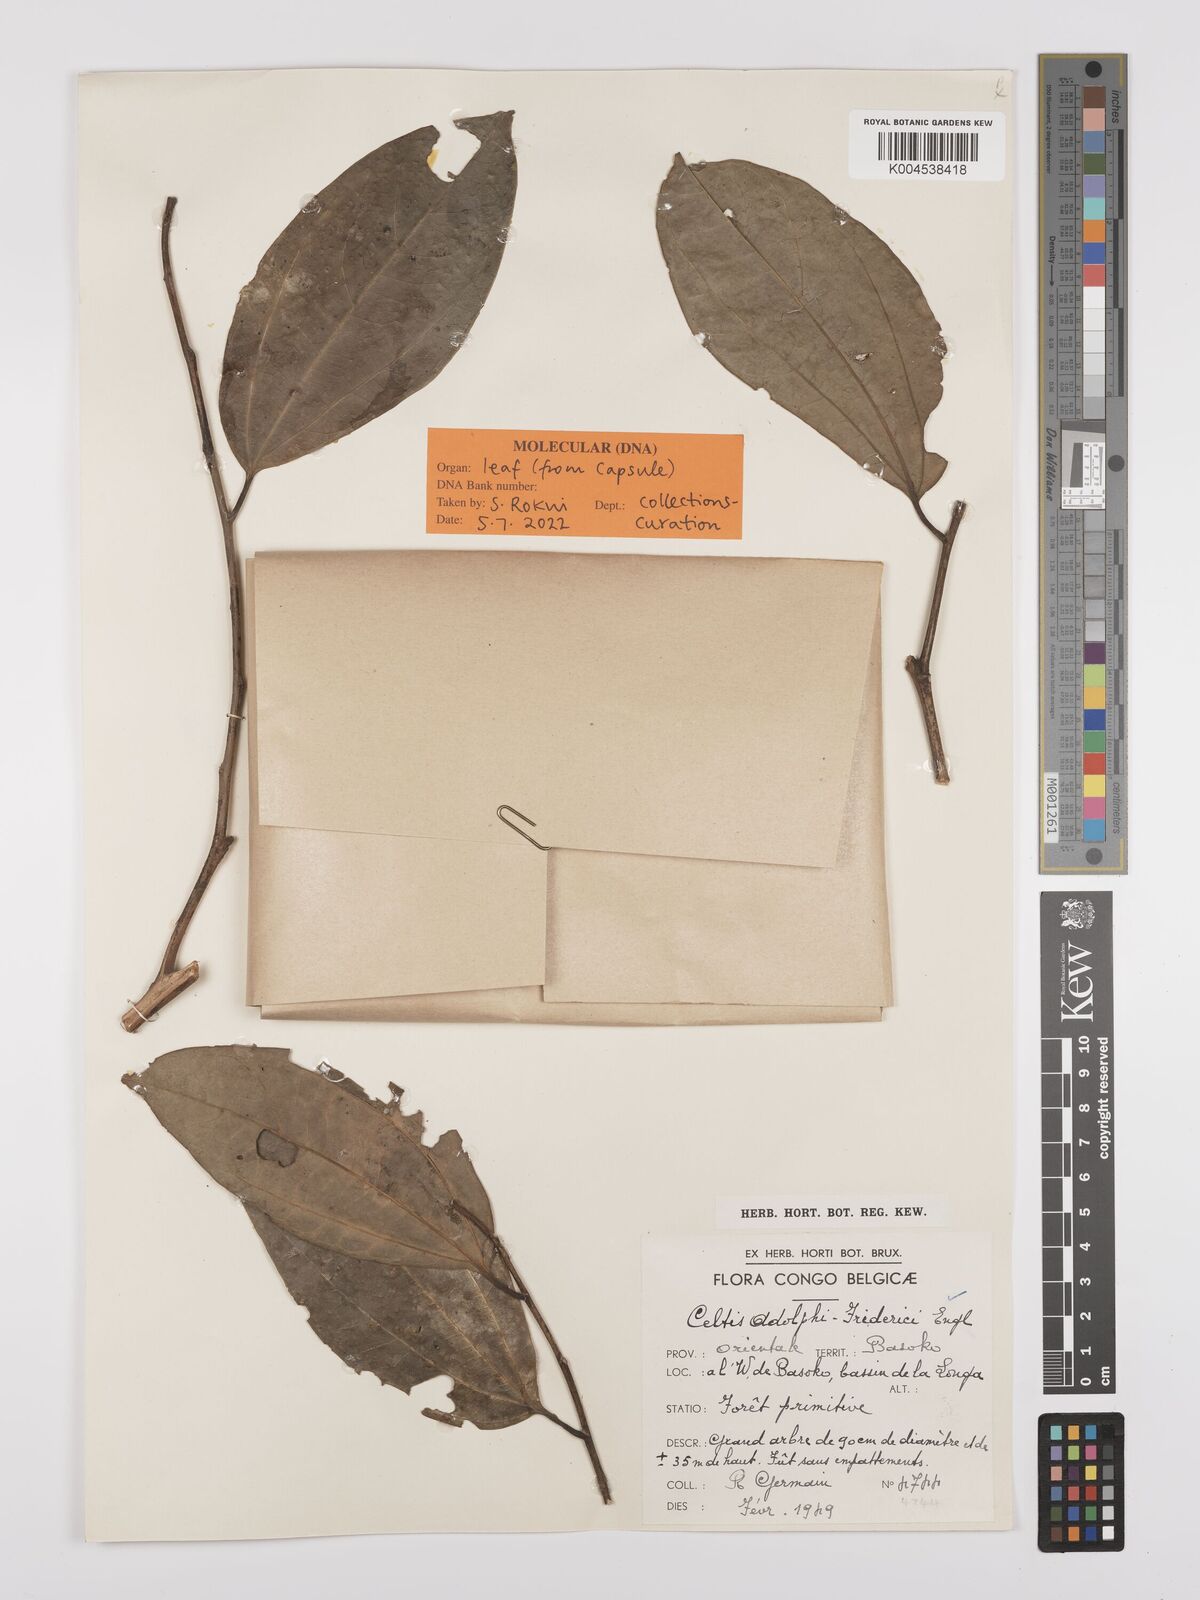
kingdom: Plantae
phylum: Tracheophyta
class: Magnoliopsida
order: Rosales
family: Cannabaceae
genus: Celtis
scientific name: Celtis adolfi-friderici
